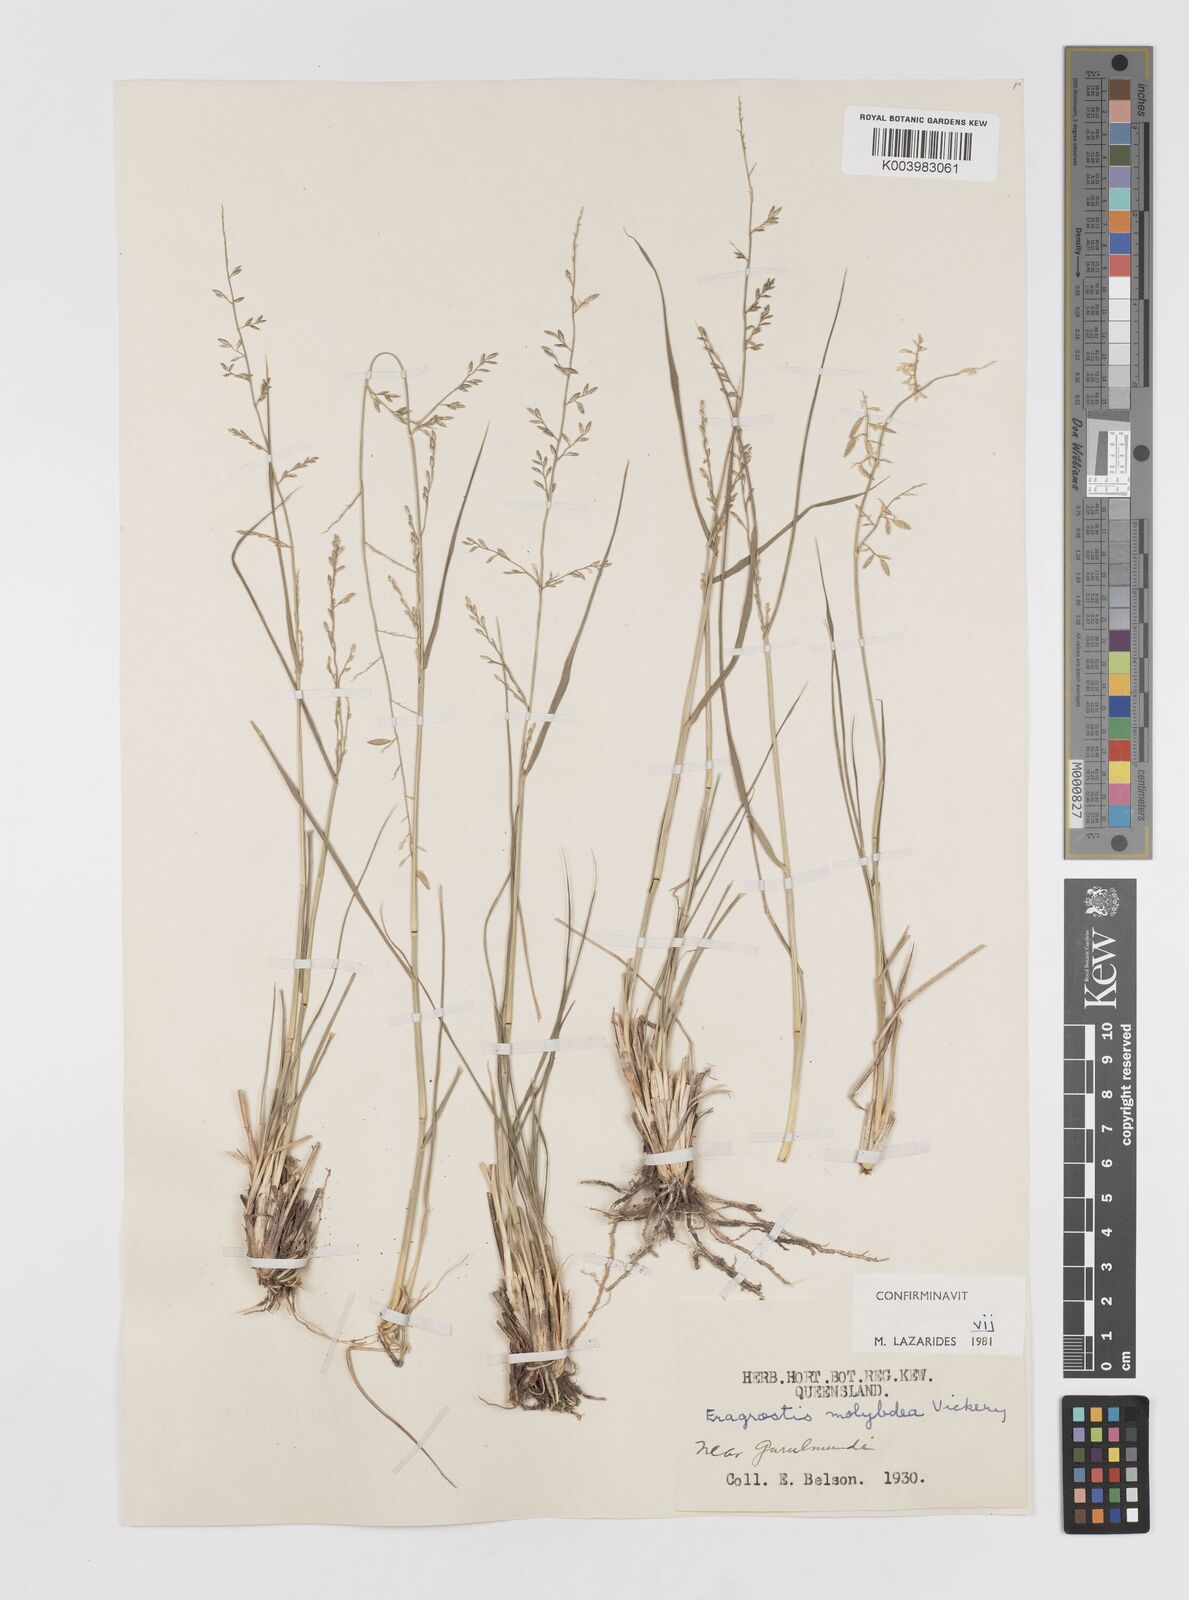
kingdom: Plantae
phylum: Tracheophyta
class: Liliopsida
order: Poales
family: Poaceae
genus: Eragrostis
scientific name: Eragrostis leptostachya
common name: Australian lovegrass
